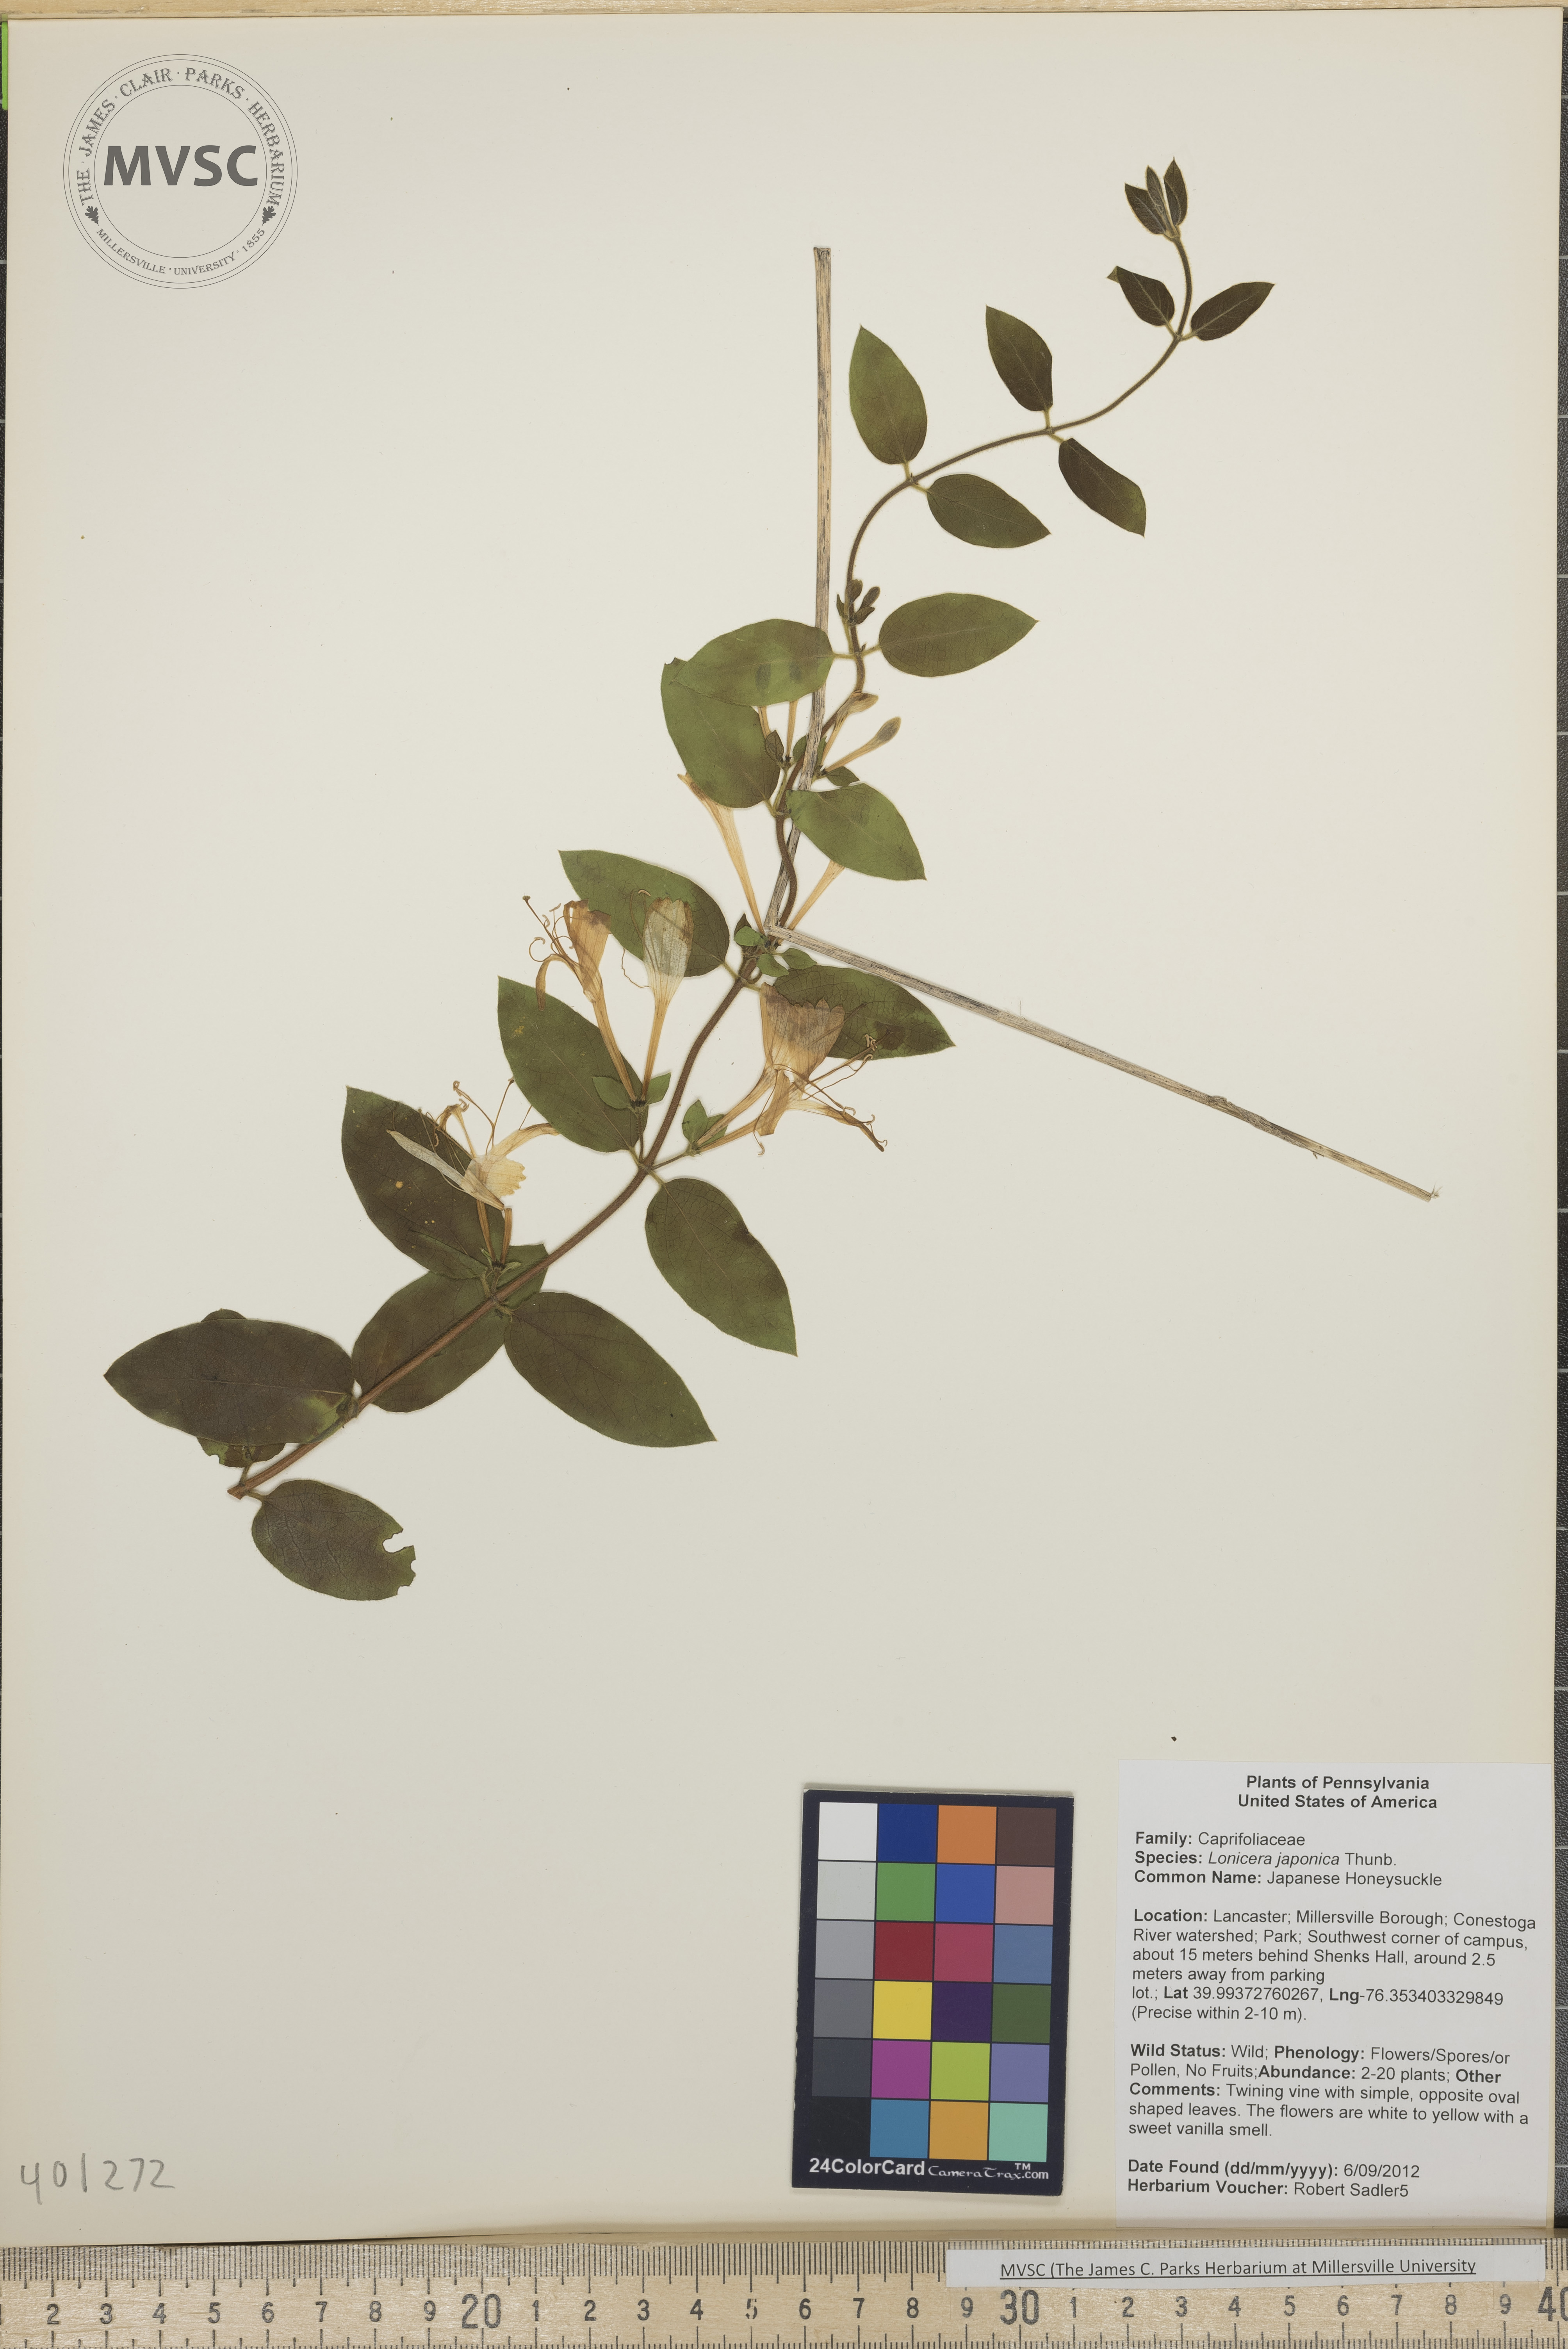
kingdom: Plantae
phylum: Tracheophyta
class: Magnoliopsida
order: Dipsacales
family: Caprifoliaceae
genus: Lonicera
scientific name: Lonicera japonica
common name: Japanese Honeysuckle
